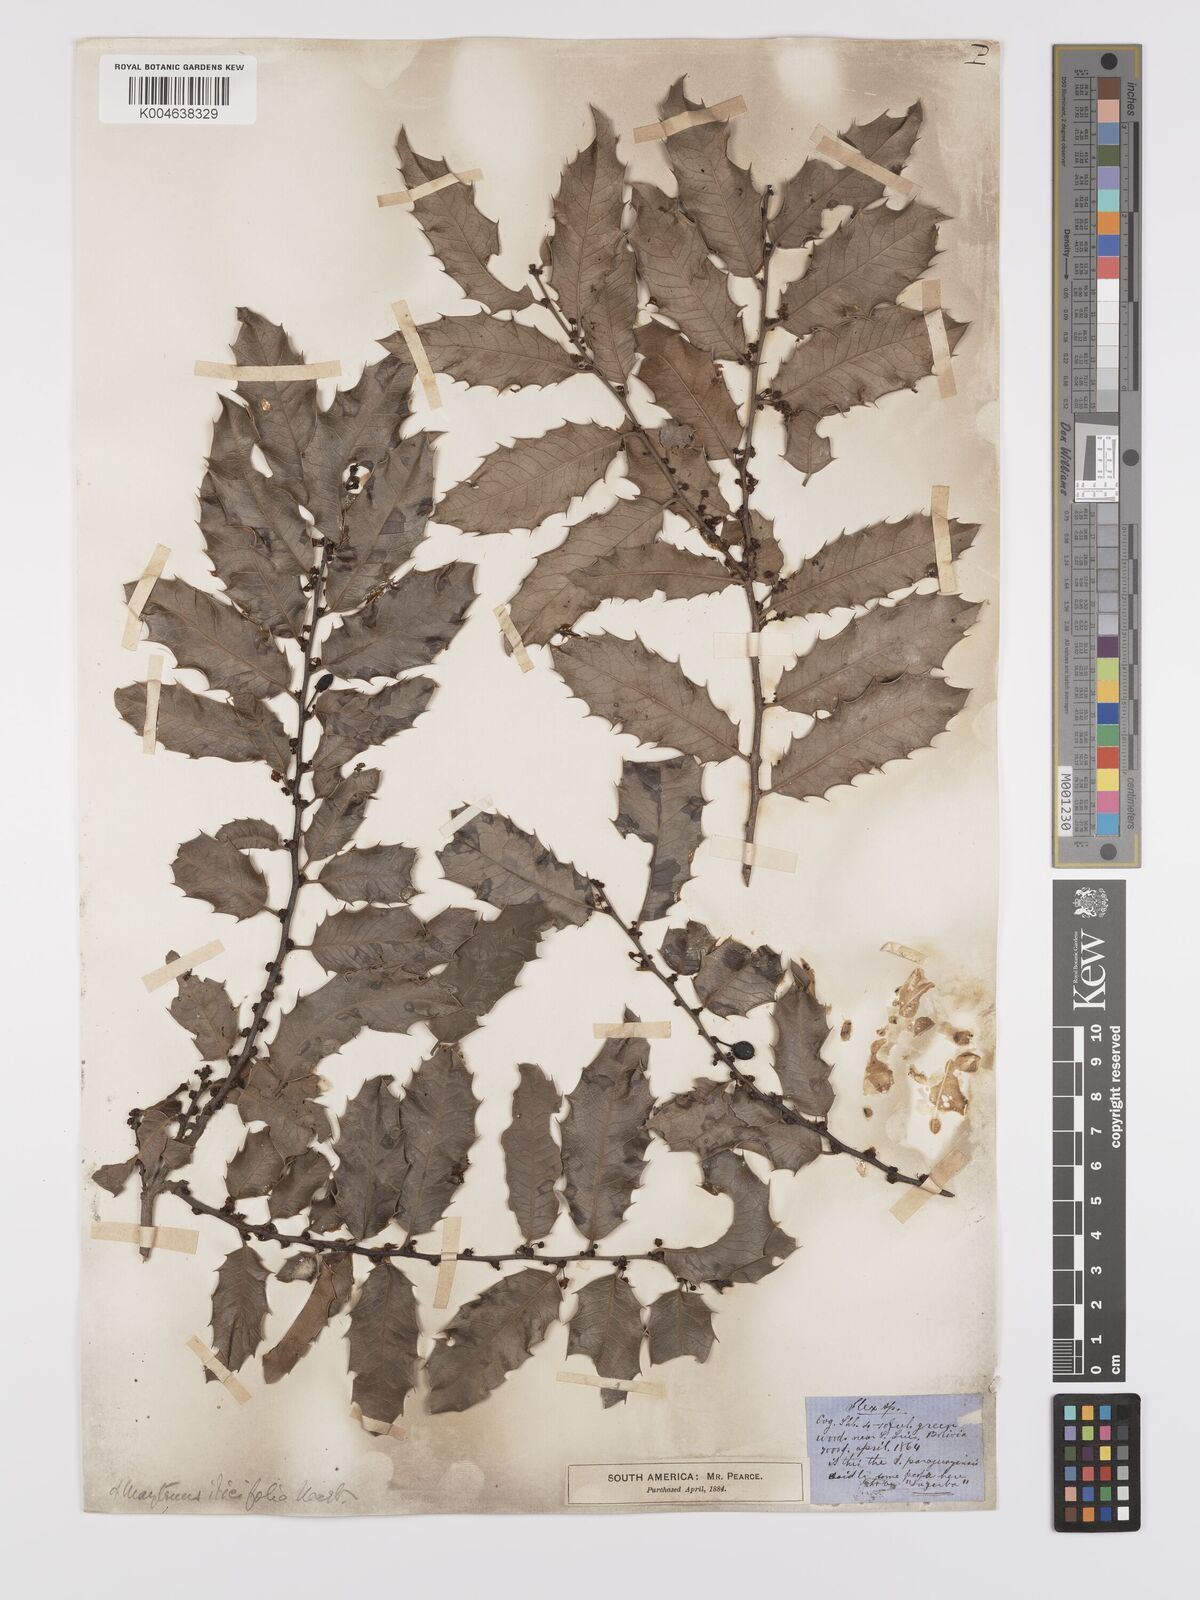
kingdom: Plantae
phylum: Tracheophyta
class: Magnoliopsida
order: Celastrales
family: Celastraceae
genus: Maytenus
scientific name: Maytenus
